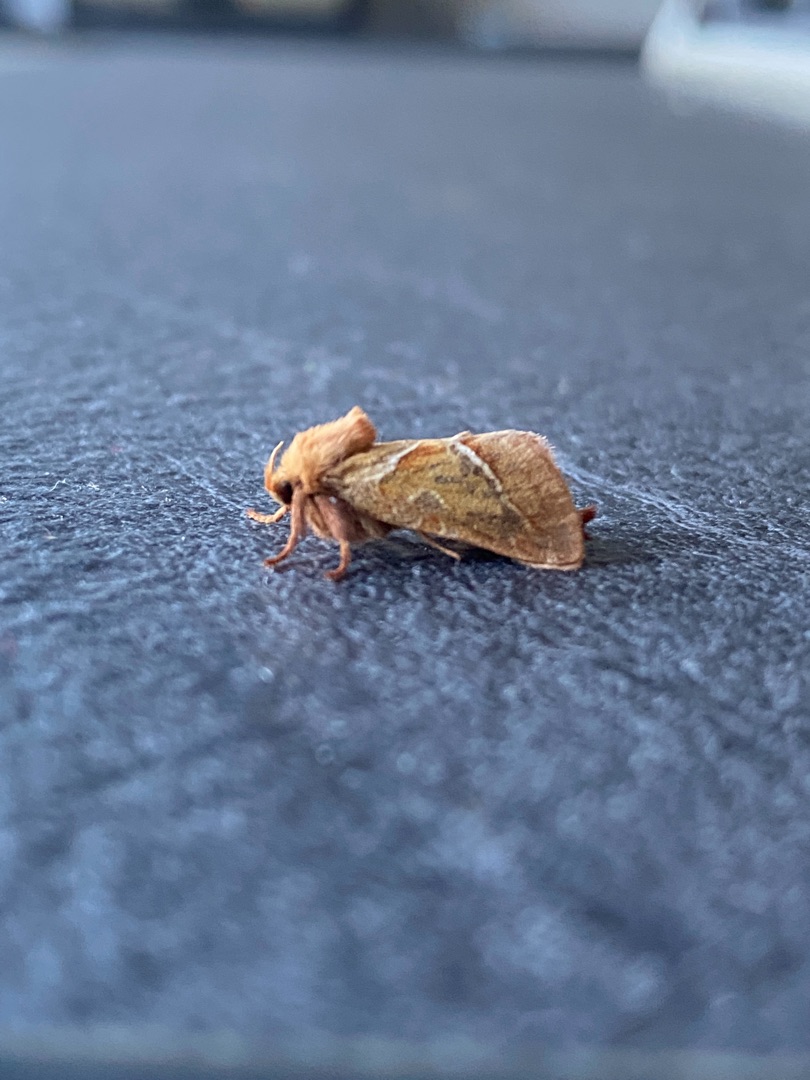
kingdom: Animalia
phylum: Arthropoda
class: Insecta
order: Lepidoptera
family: Hepialidae
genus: Triodia
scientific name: Triodia sylvina
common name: Skræpperodæder
